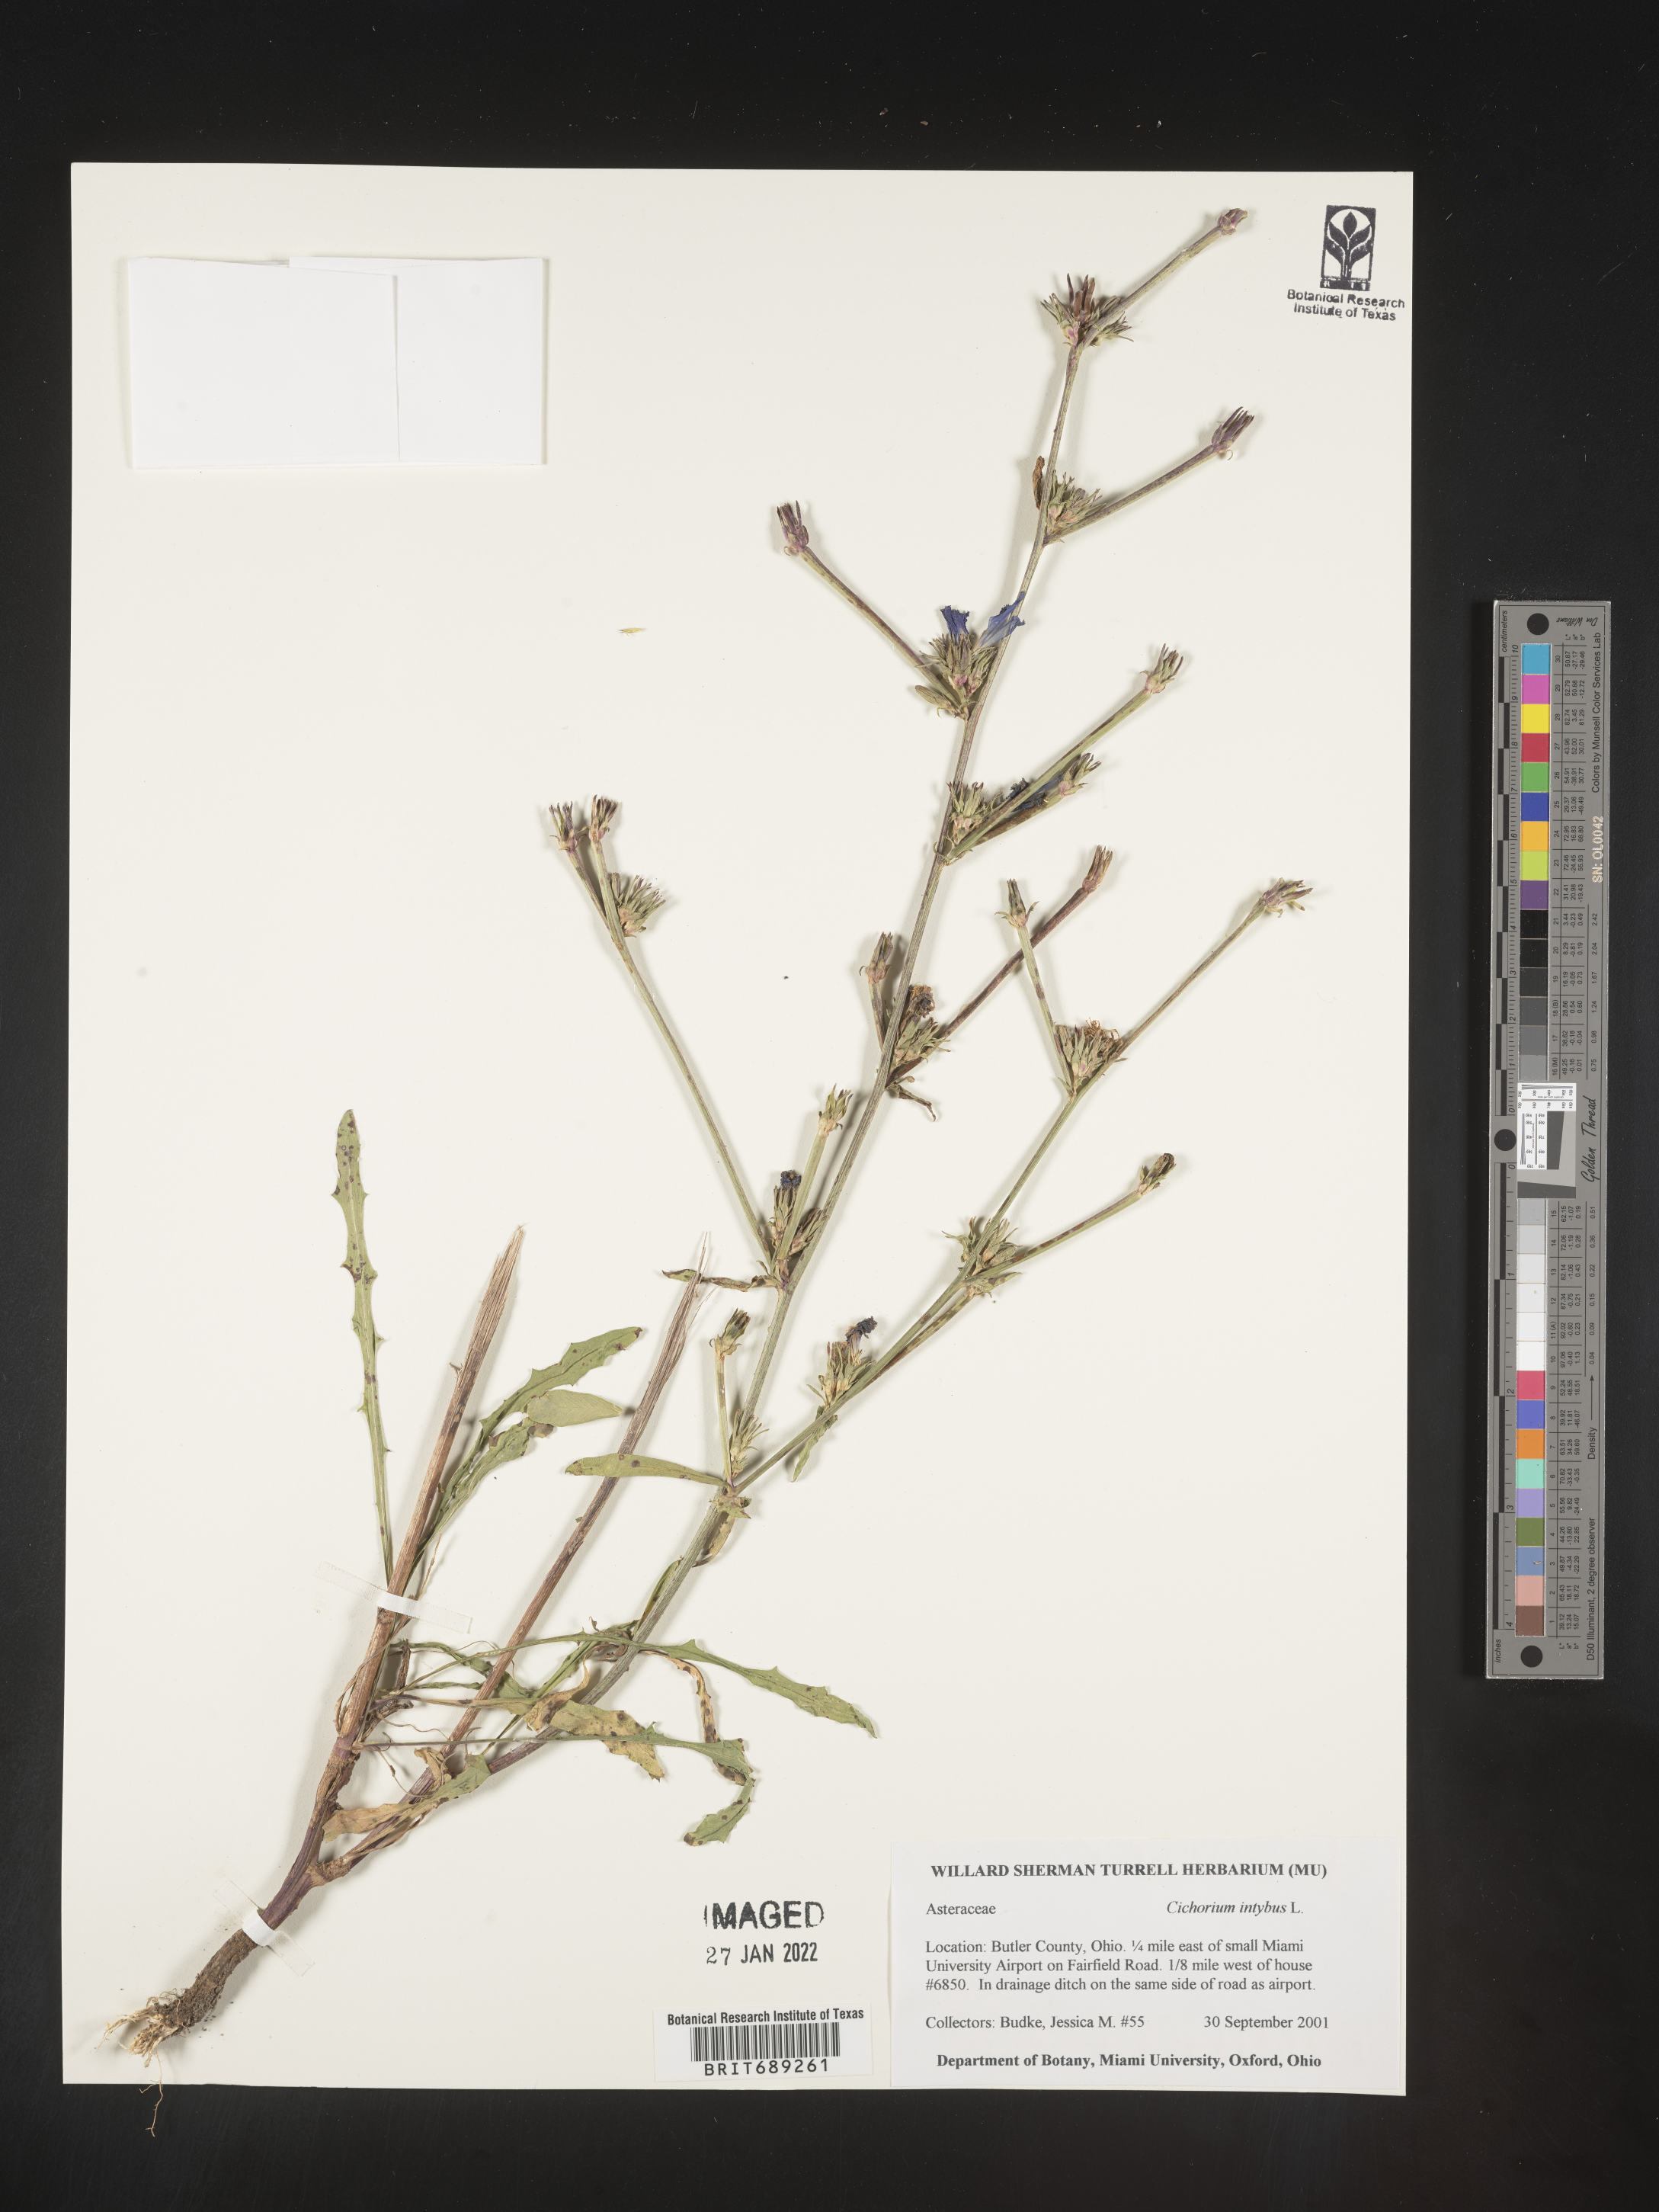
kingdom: Plantae
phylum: Tracheophyta
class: Magnoliopsida
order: Asterales
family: Asteraceae
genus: Cichorium
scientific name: Cichorium intybus
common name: Chicory
